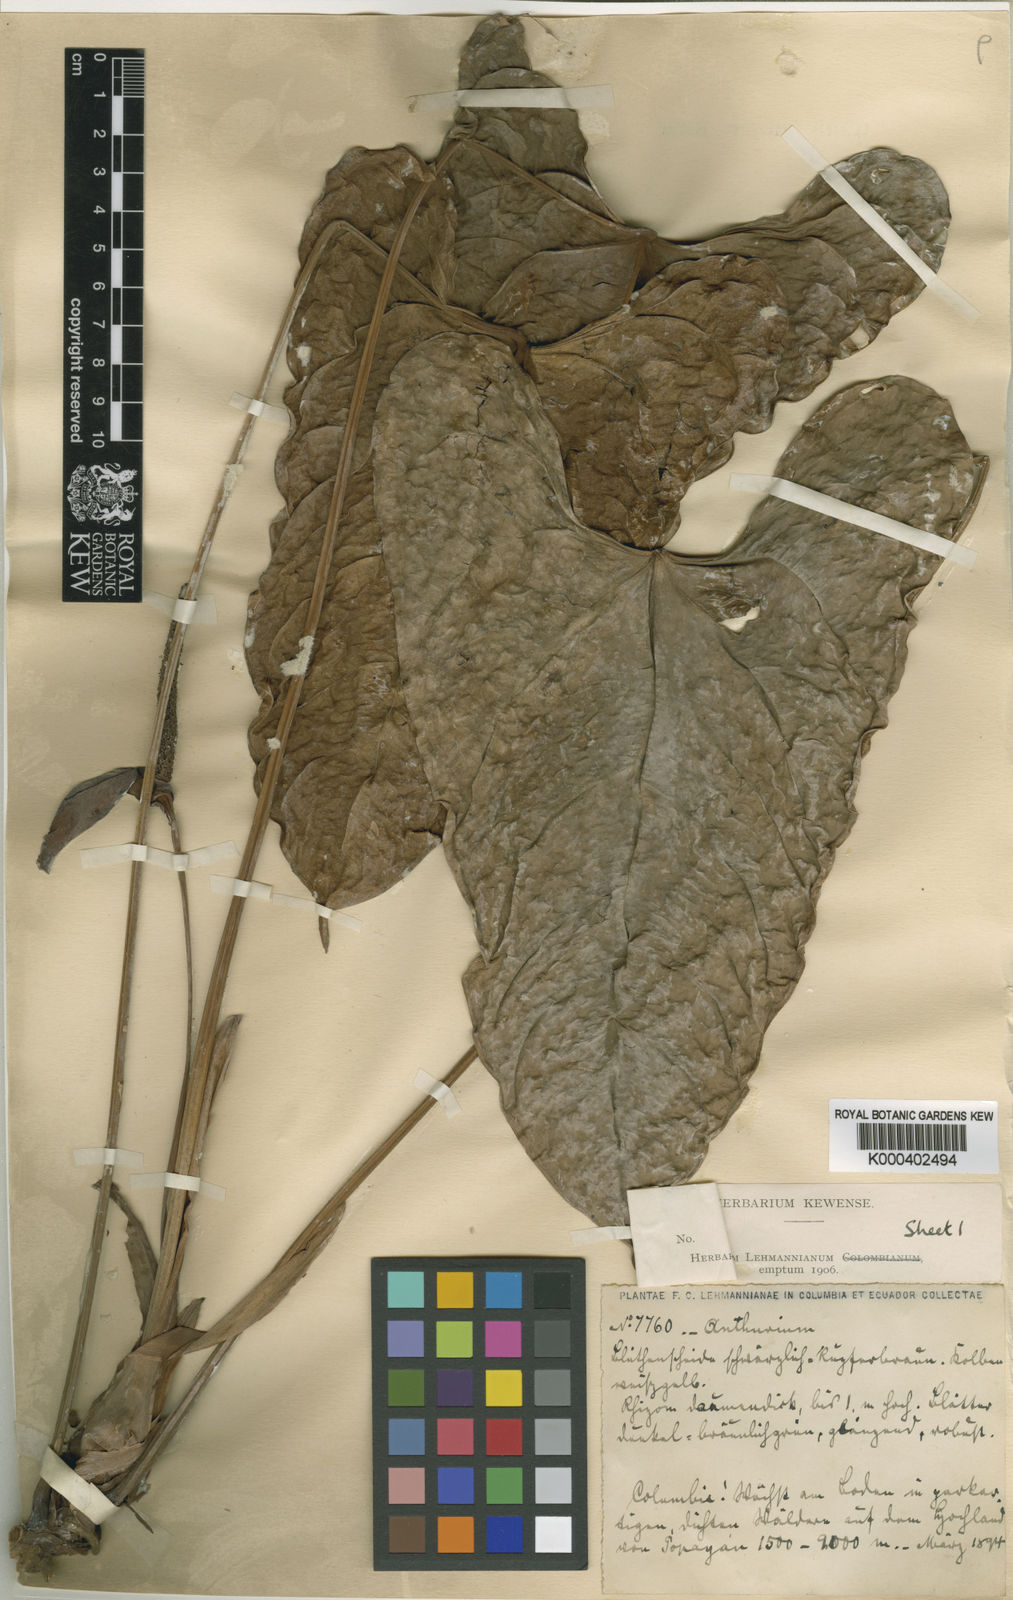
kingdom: Plantae
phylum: Tracheophyta
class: Liliopsida
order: Alismatales
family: Araceae
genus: Anthurium
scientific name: Anthurium longistamineum
